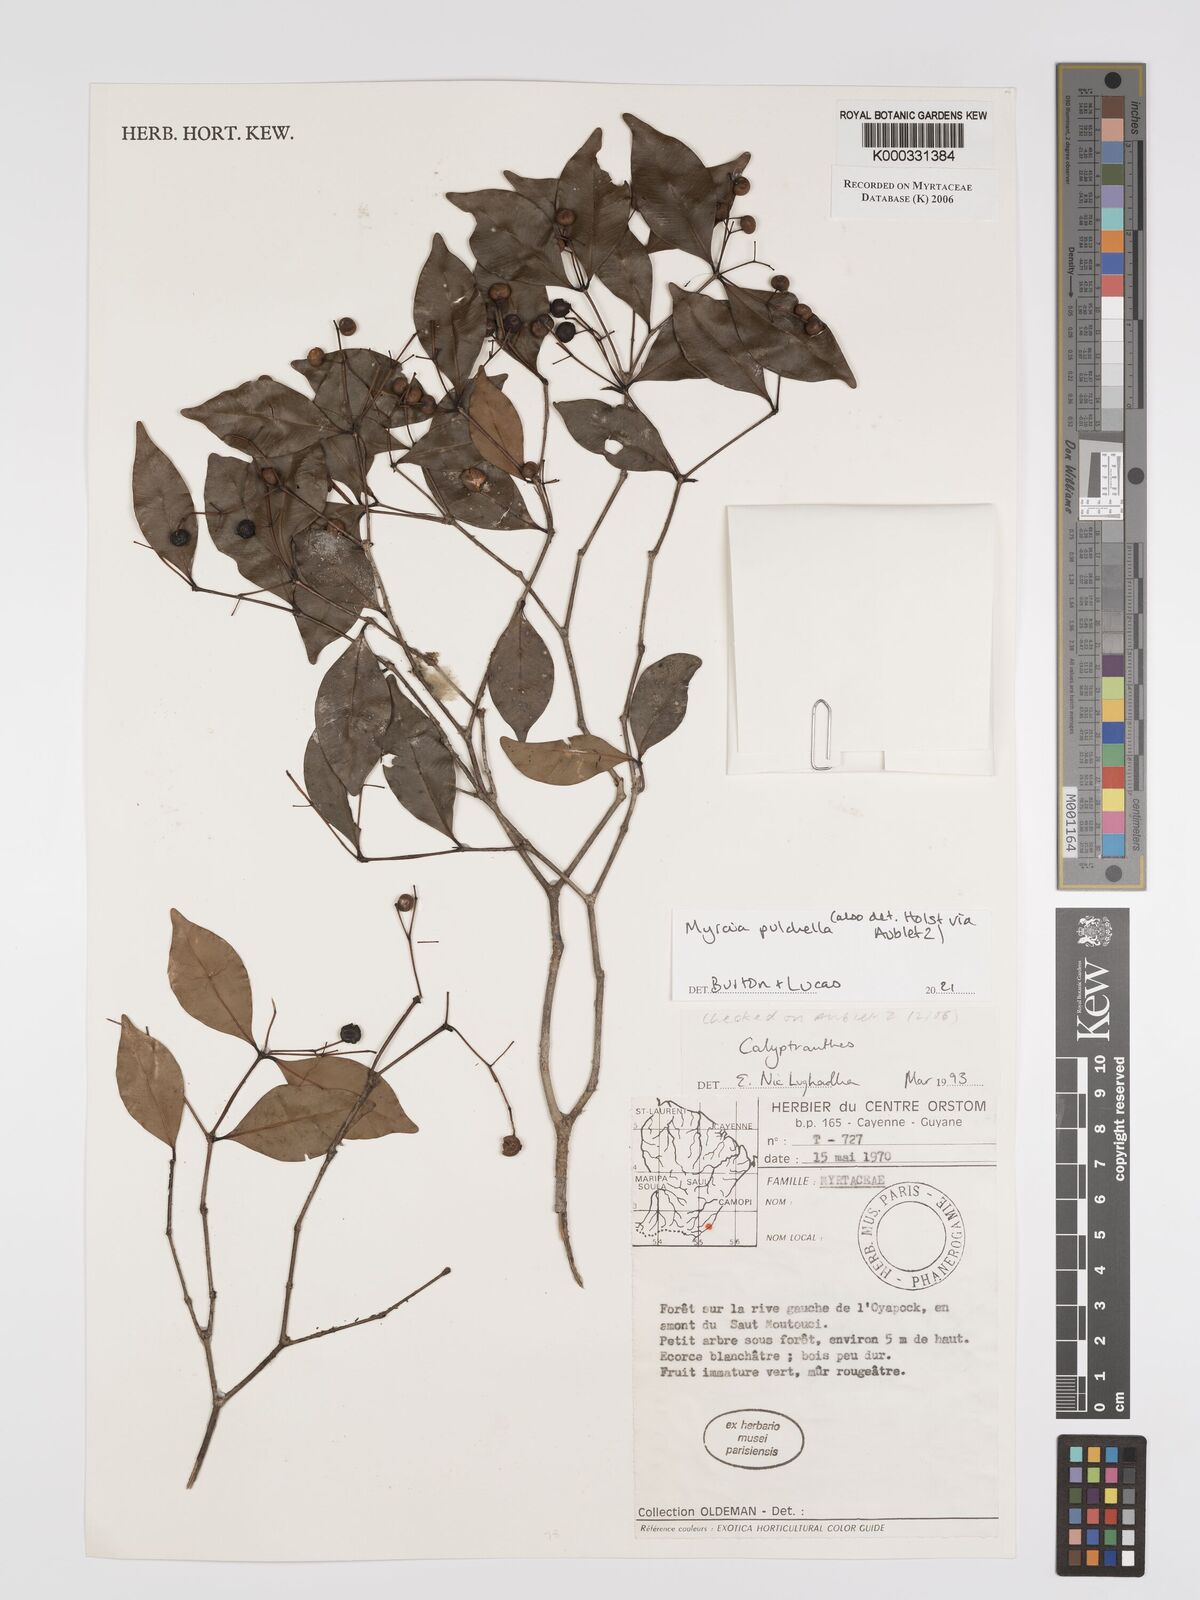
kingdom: Plantae
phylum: Tracheophyta
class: Magnoliopsida
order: Myrtales
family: Myrtaceae
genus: Calyptranthes
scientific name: Calyptranthes
